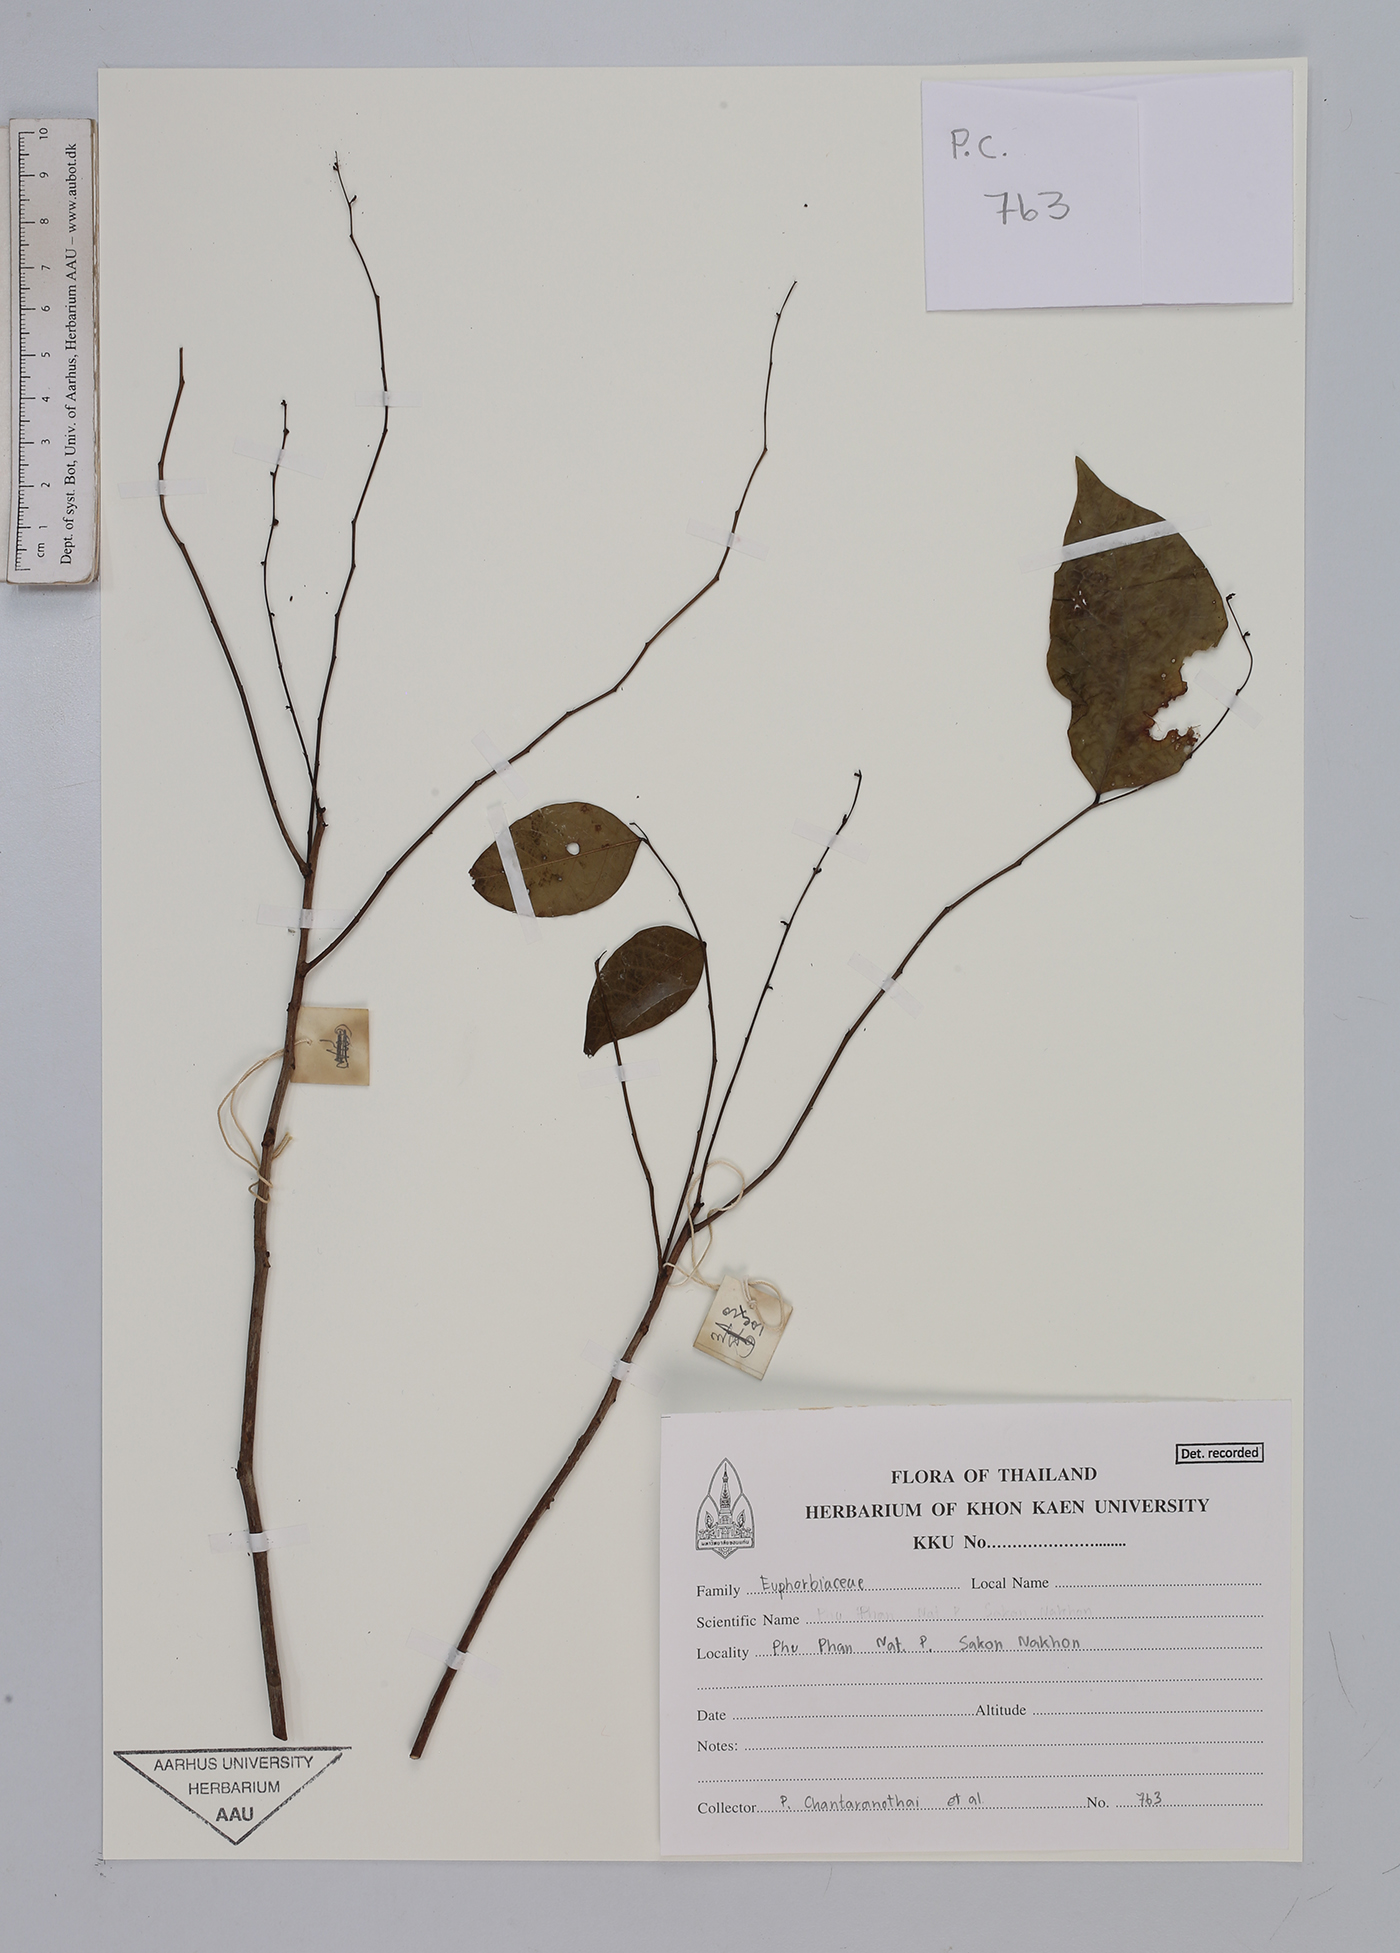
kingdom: Plantae
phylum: Tracheophyta
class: Magnoliopsida
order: Malpighiales
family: Euphorbiaceae
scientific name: Euphorbiaceae
